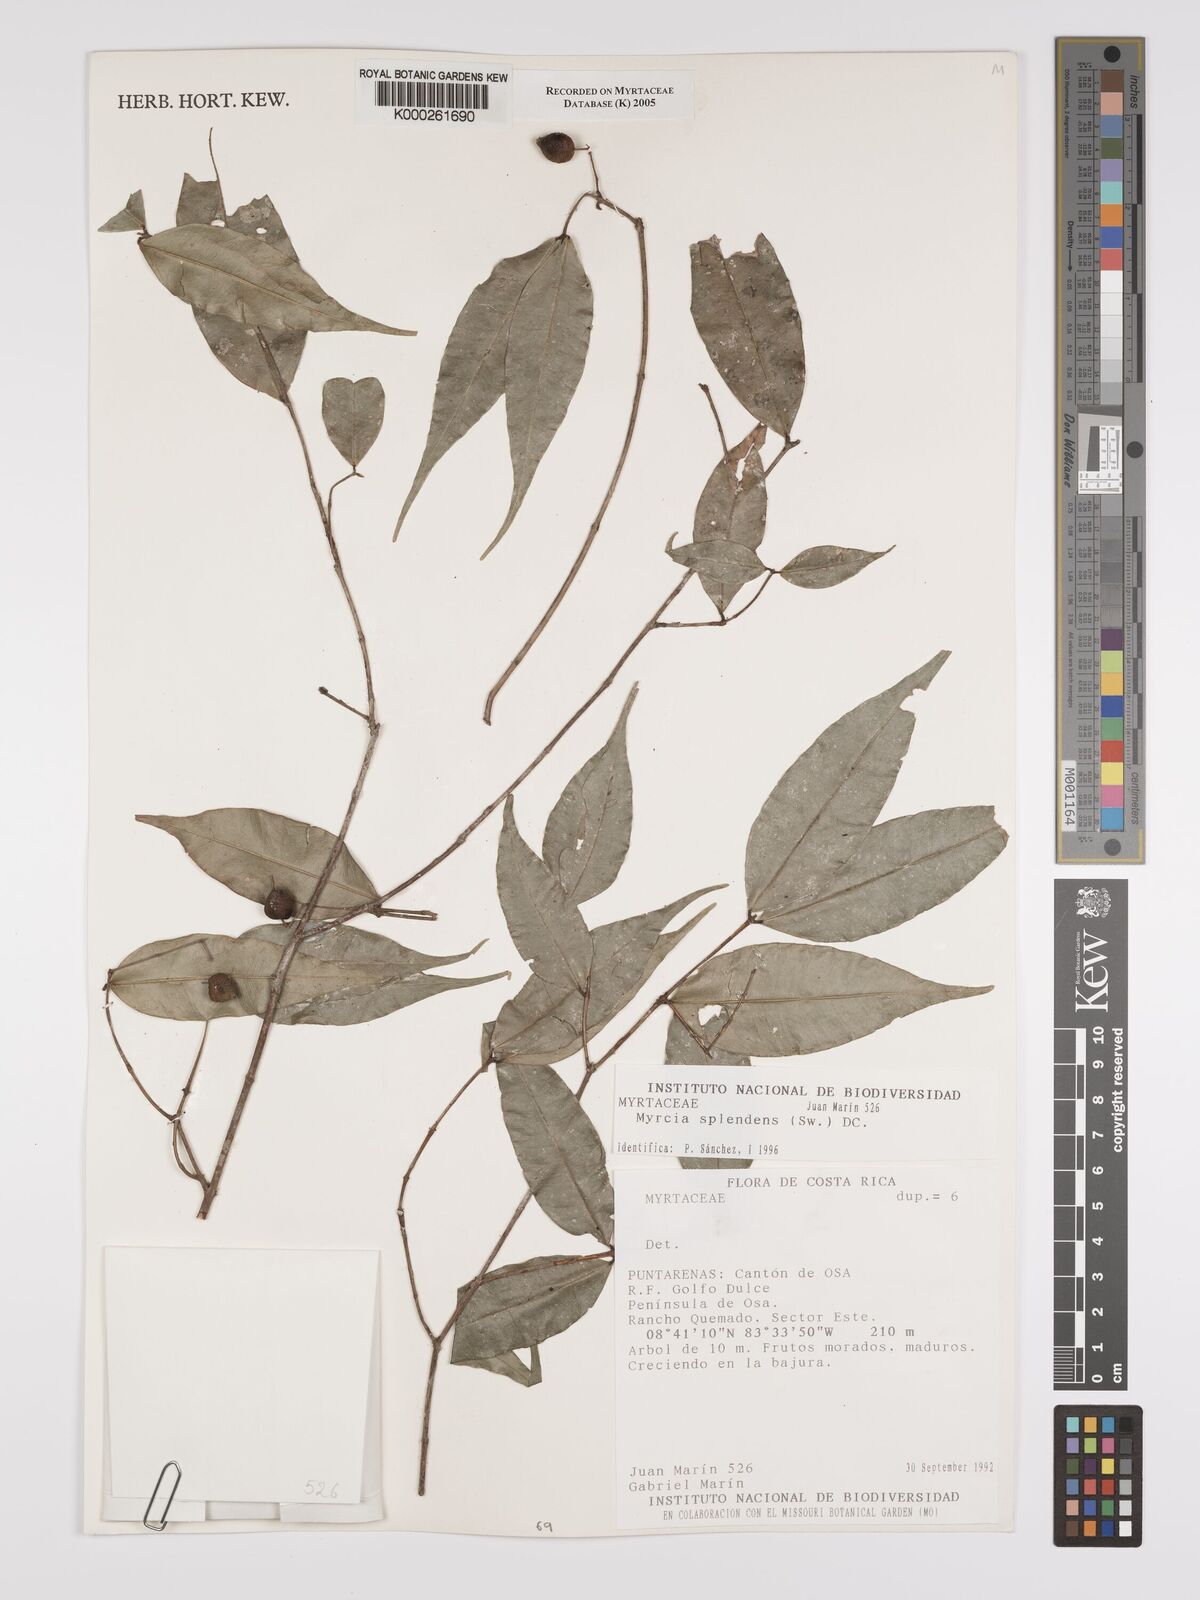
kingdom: Plantae
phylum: Tracheophyta
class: Magnoliopsida
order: Myrtales
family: Myrtaceae
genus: Myrcia
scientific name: Myrcia splendens
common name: Surinam cherry
